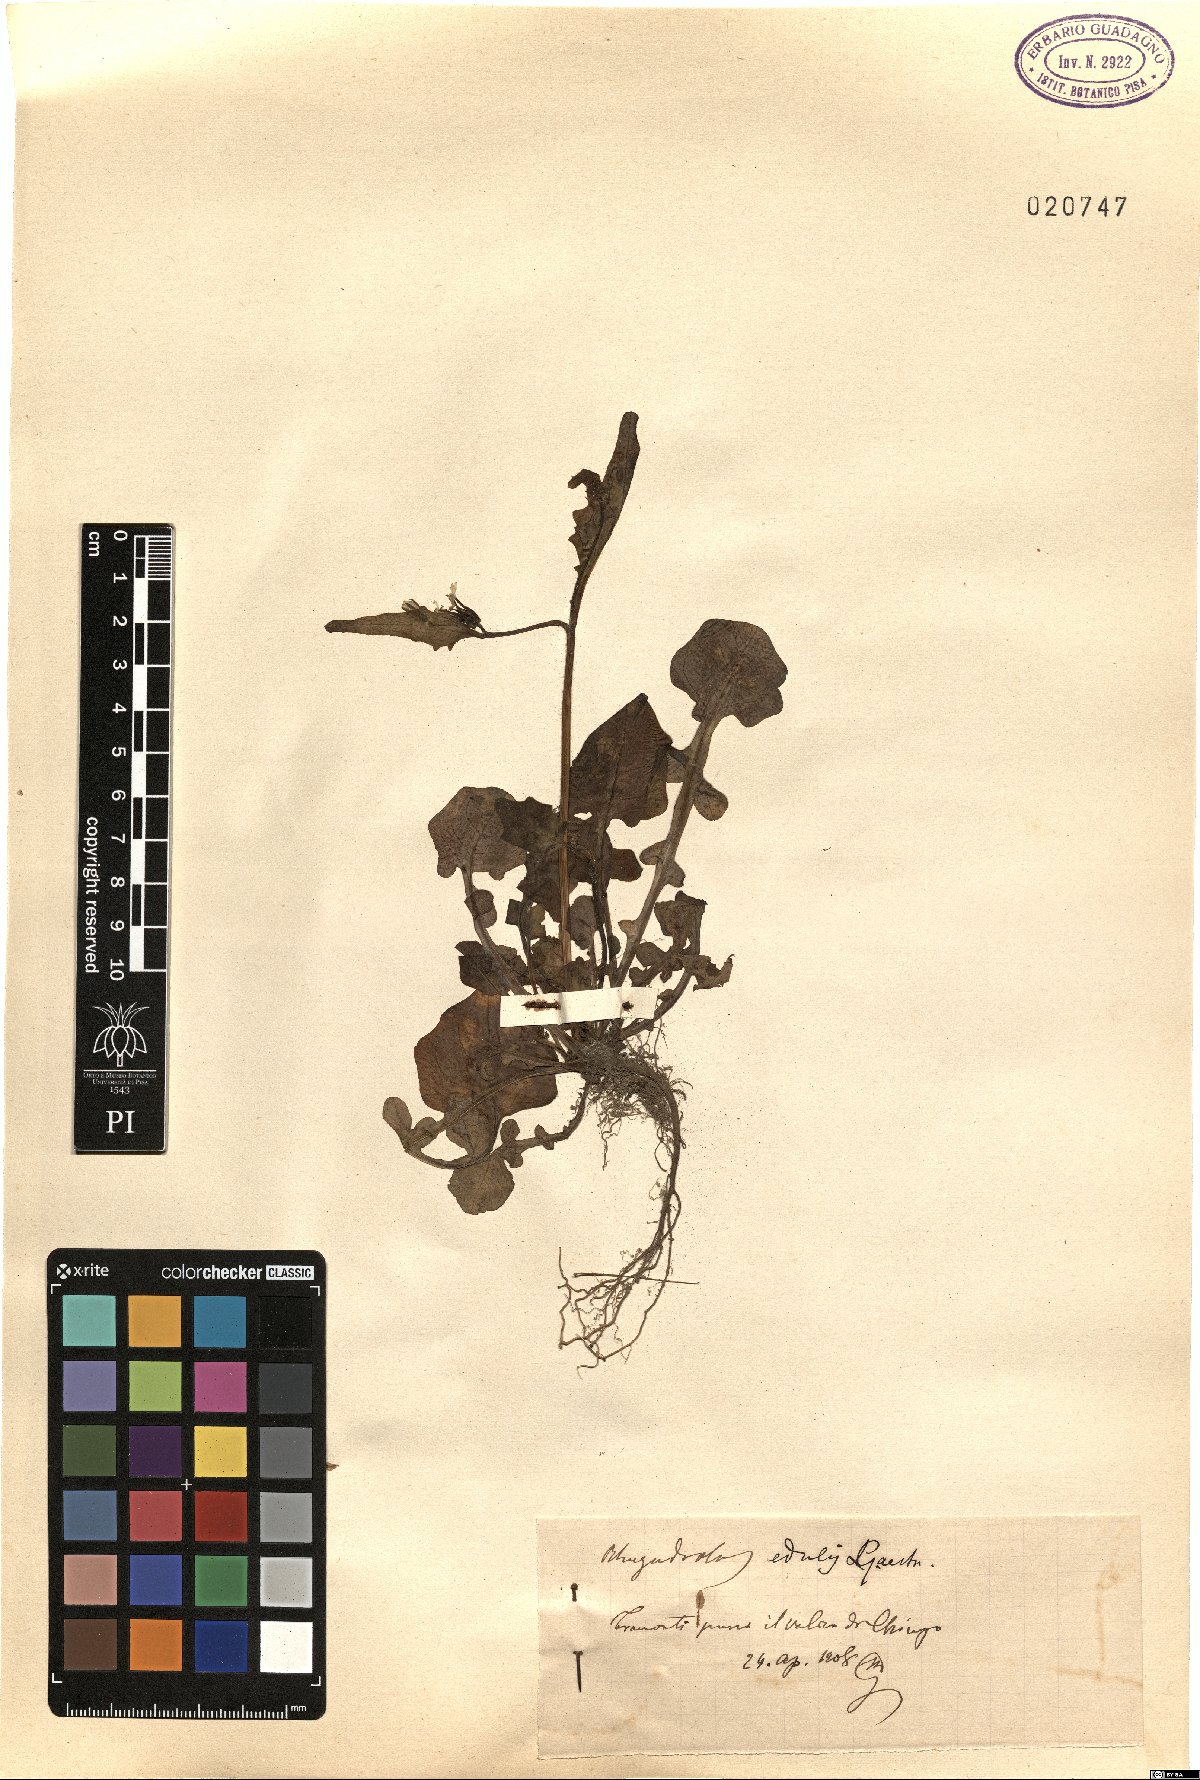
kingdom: Plantae
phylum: Tracheophyta
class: Magnoliopsida
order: Asterales
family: Asteraceae
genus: Rhagadiolus
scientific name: Rhagadiolus edulis
